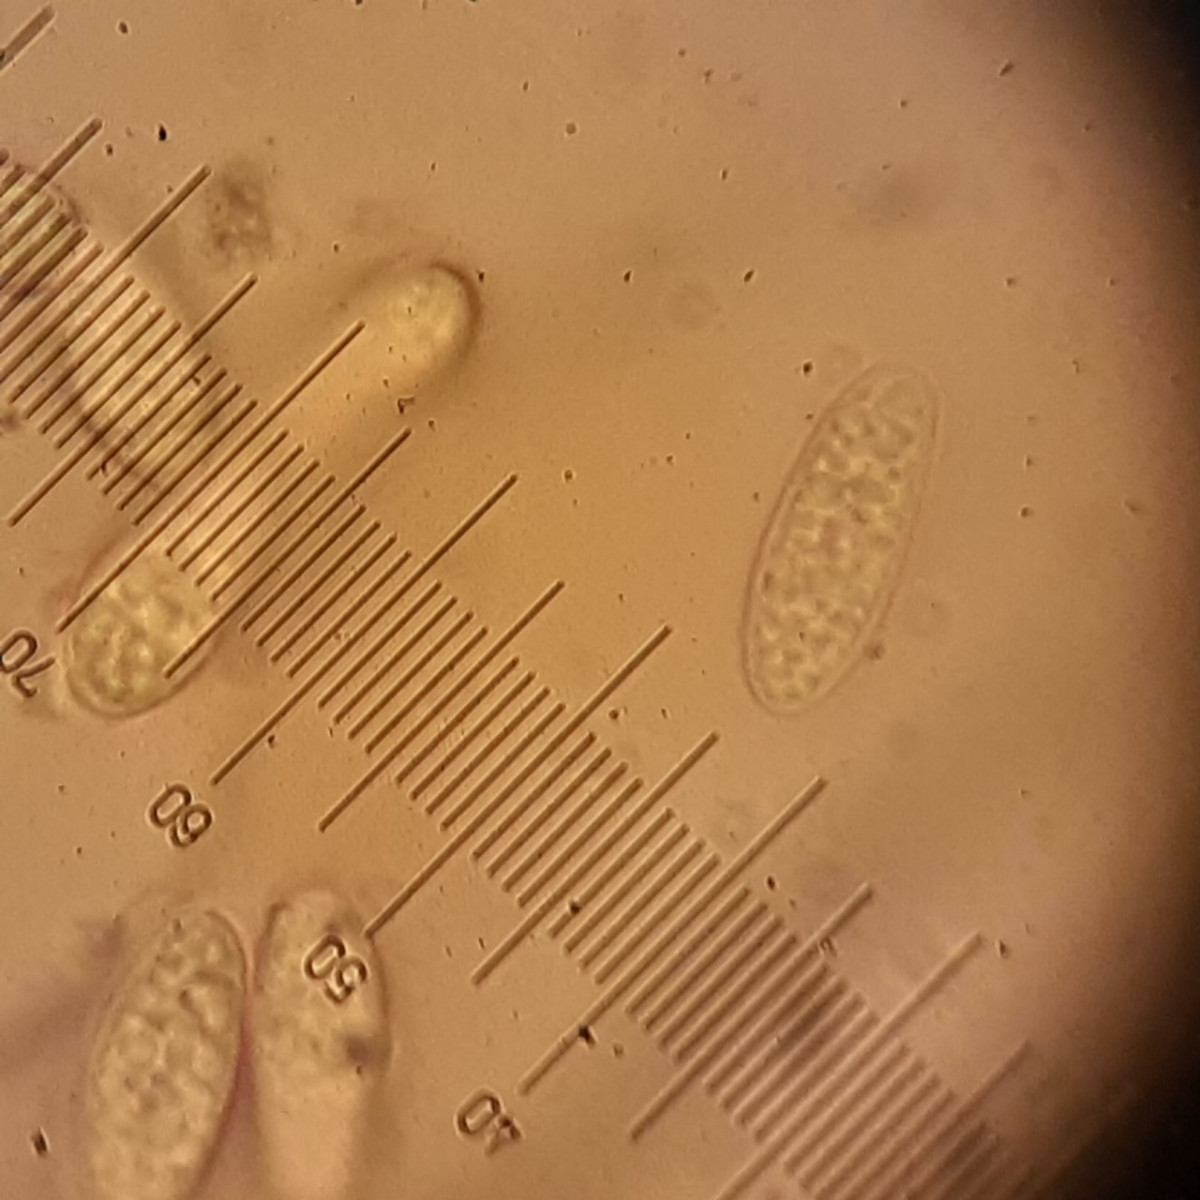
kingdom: Fungi
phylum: Ascomycota
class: Leotiomycetes
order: Helotiales
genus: Cryptocline
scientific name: Cryptocline taxicola
